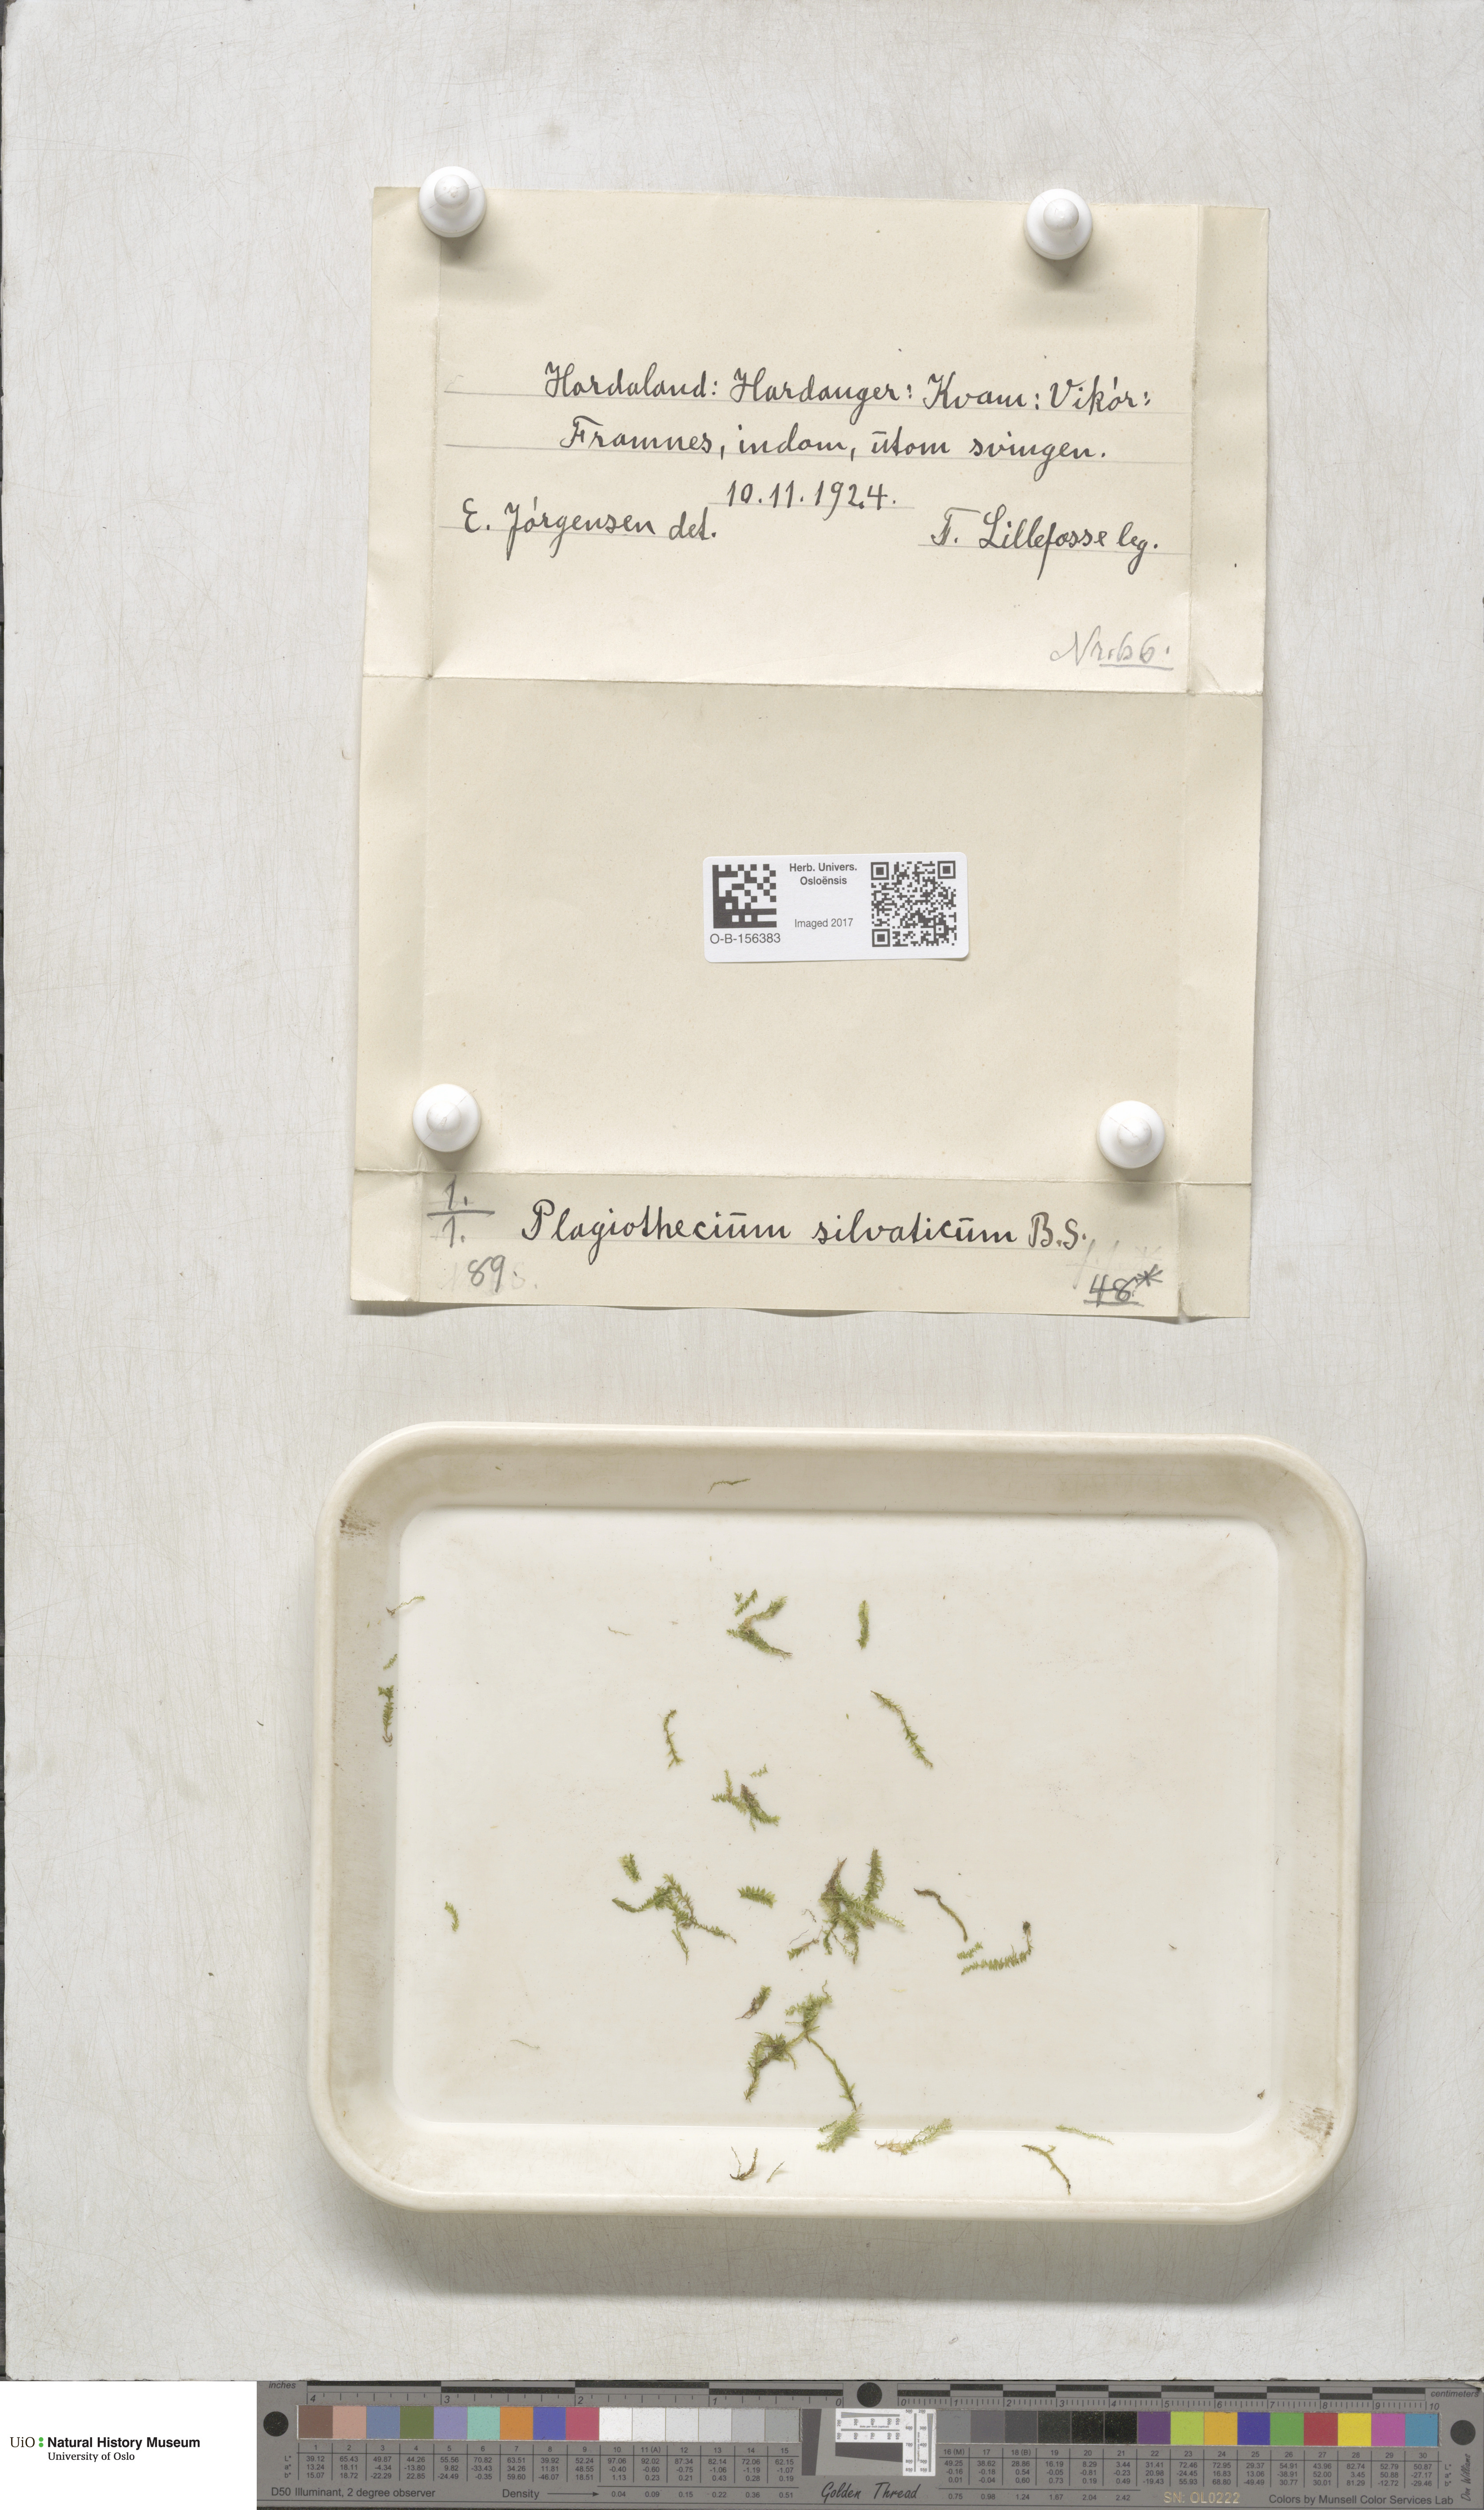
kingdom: Plantae
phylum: Bryophyta
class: Bryopsida
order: Hypnales
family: Plagiotheciaceae
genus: Plagiothecium
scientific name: Plagiothecium nemorale
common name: Woodsy silk-moss
